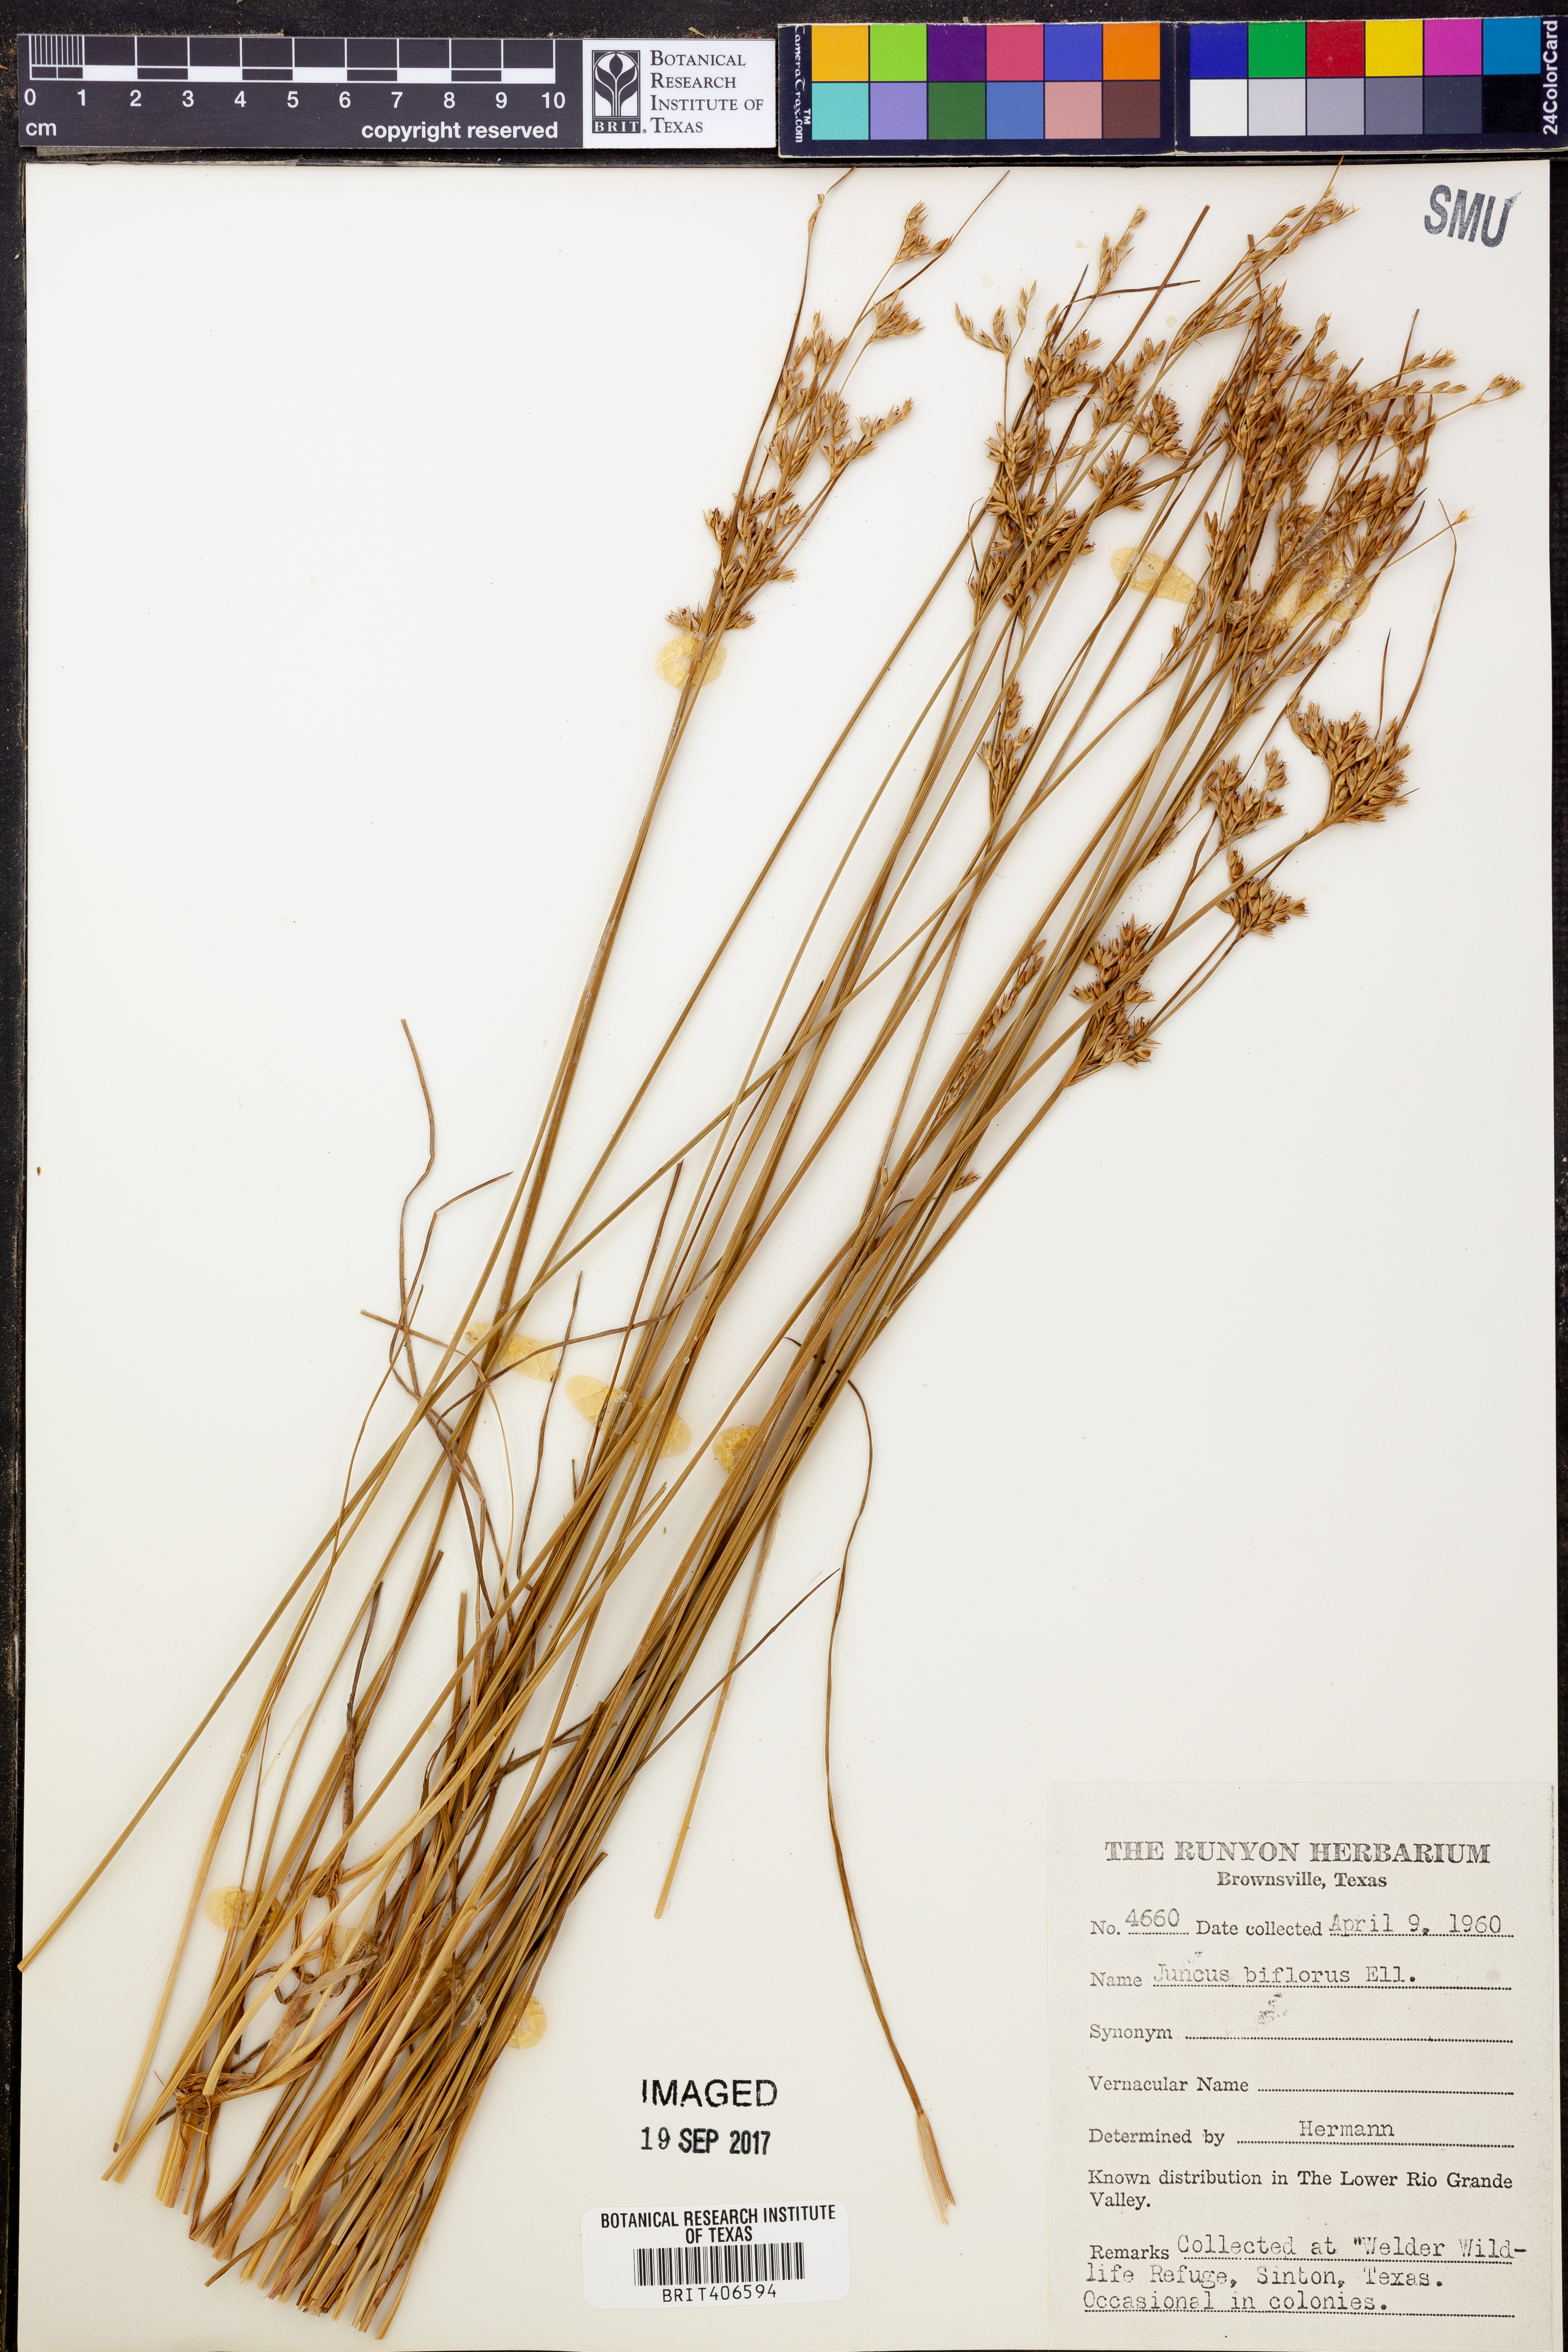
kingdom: Plantae
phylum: Tracheophyta
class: Liliopsida
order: Poales
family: Juncaceae
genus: Juncus
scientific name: Juncus biflorus
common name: Two-flowered rush
